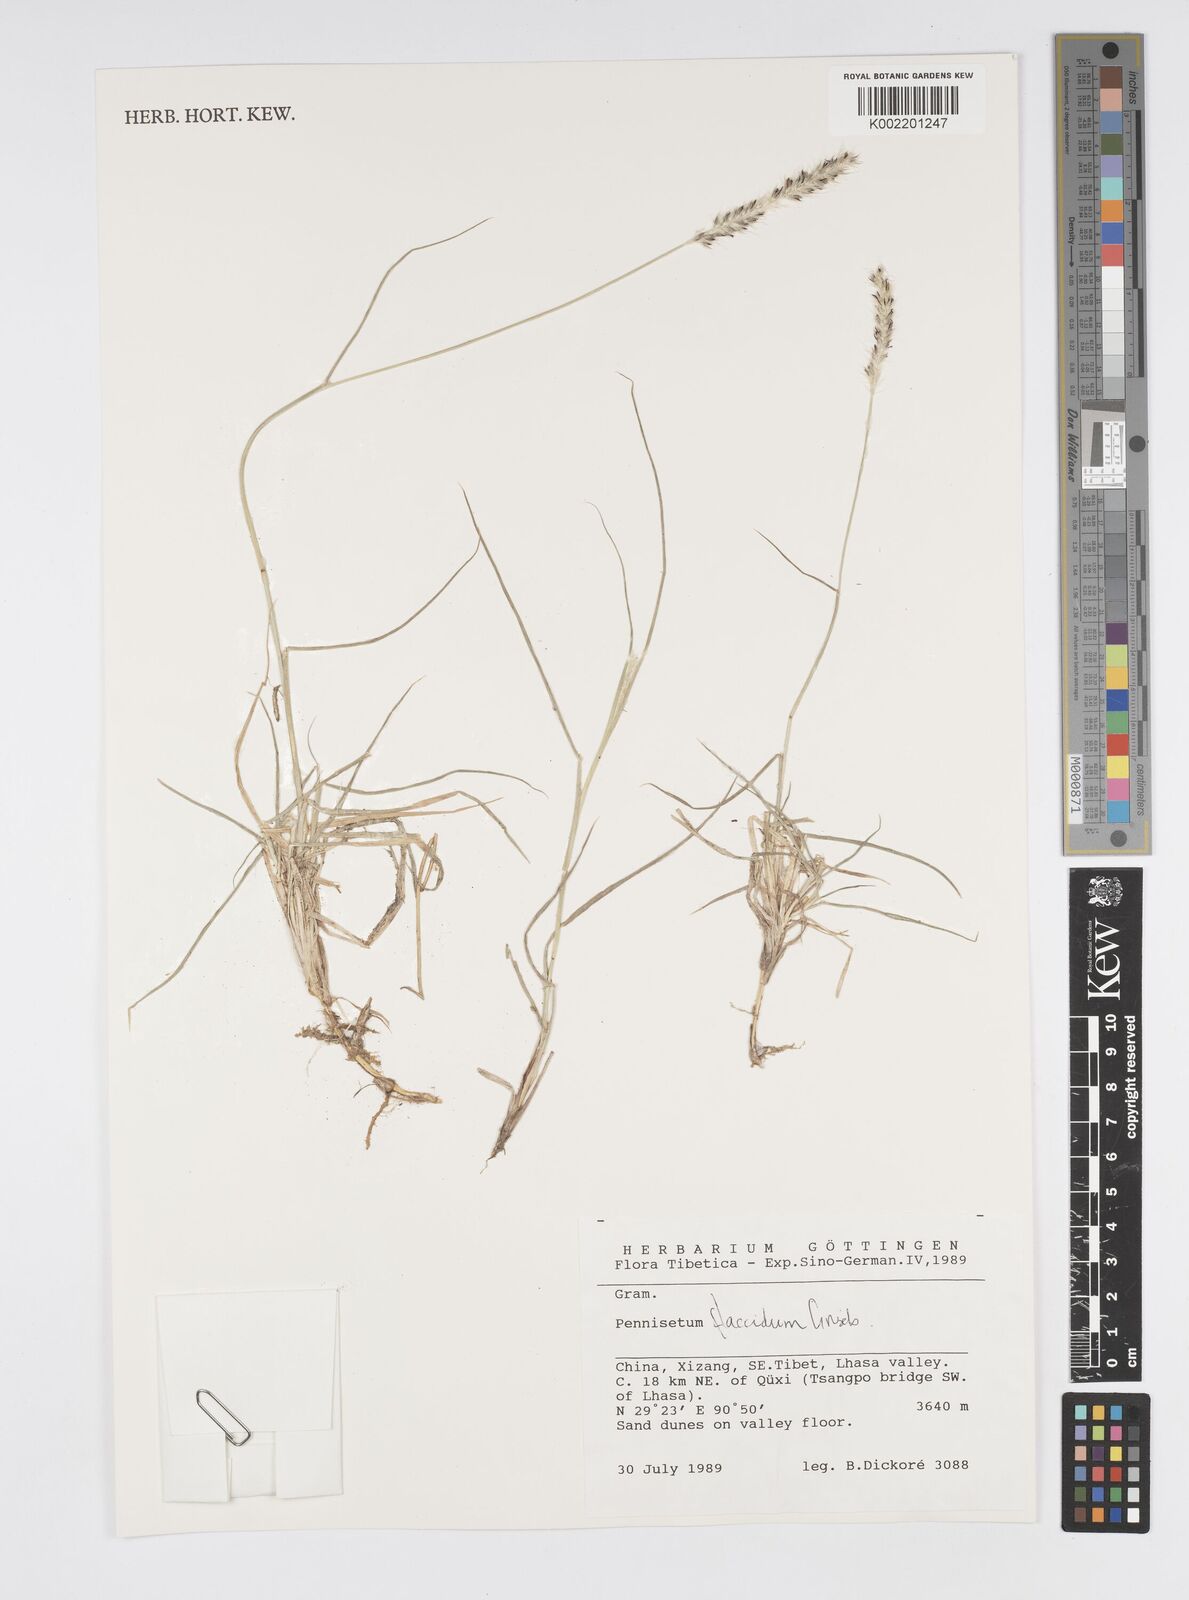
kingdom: Plantae
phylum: Tracheophyta
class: Liliopsida
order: Poales
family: Poaceae
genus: Cenchrus
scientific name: Cenchrus flaccidus
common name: Flaccid grass
